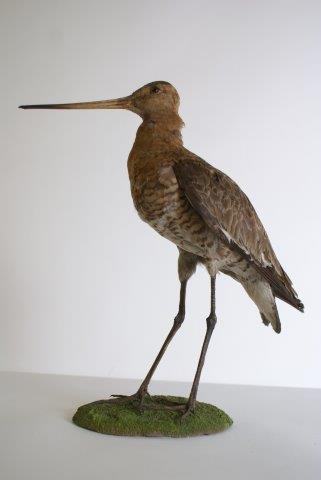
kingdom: Animalia
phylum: Chordata
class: Aves
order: Charadriiformes
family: Scolopacidae
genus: Limosa
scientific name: Limosa limosa
